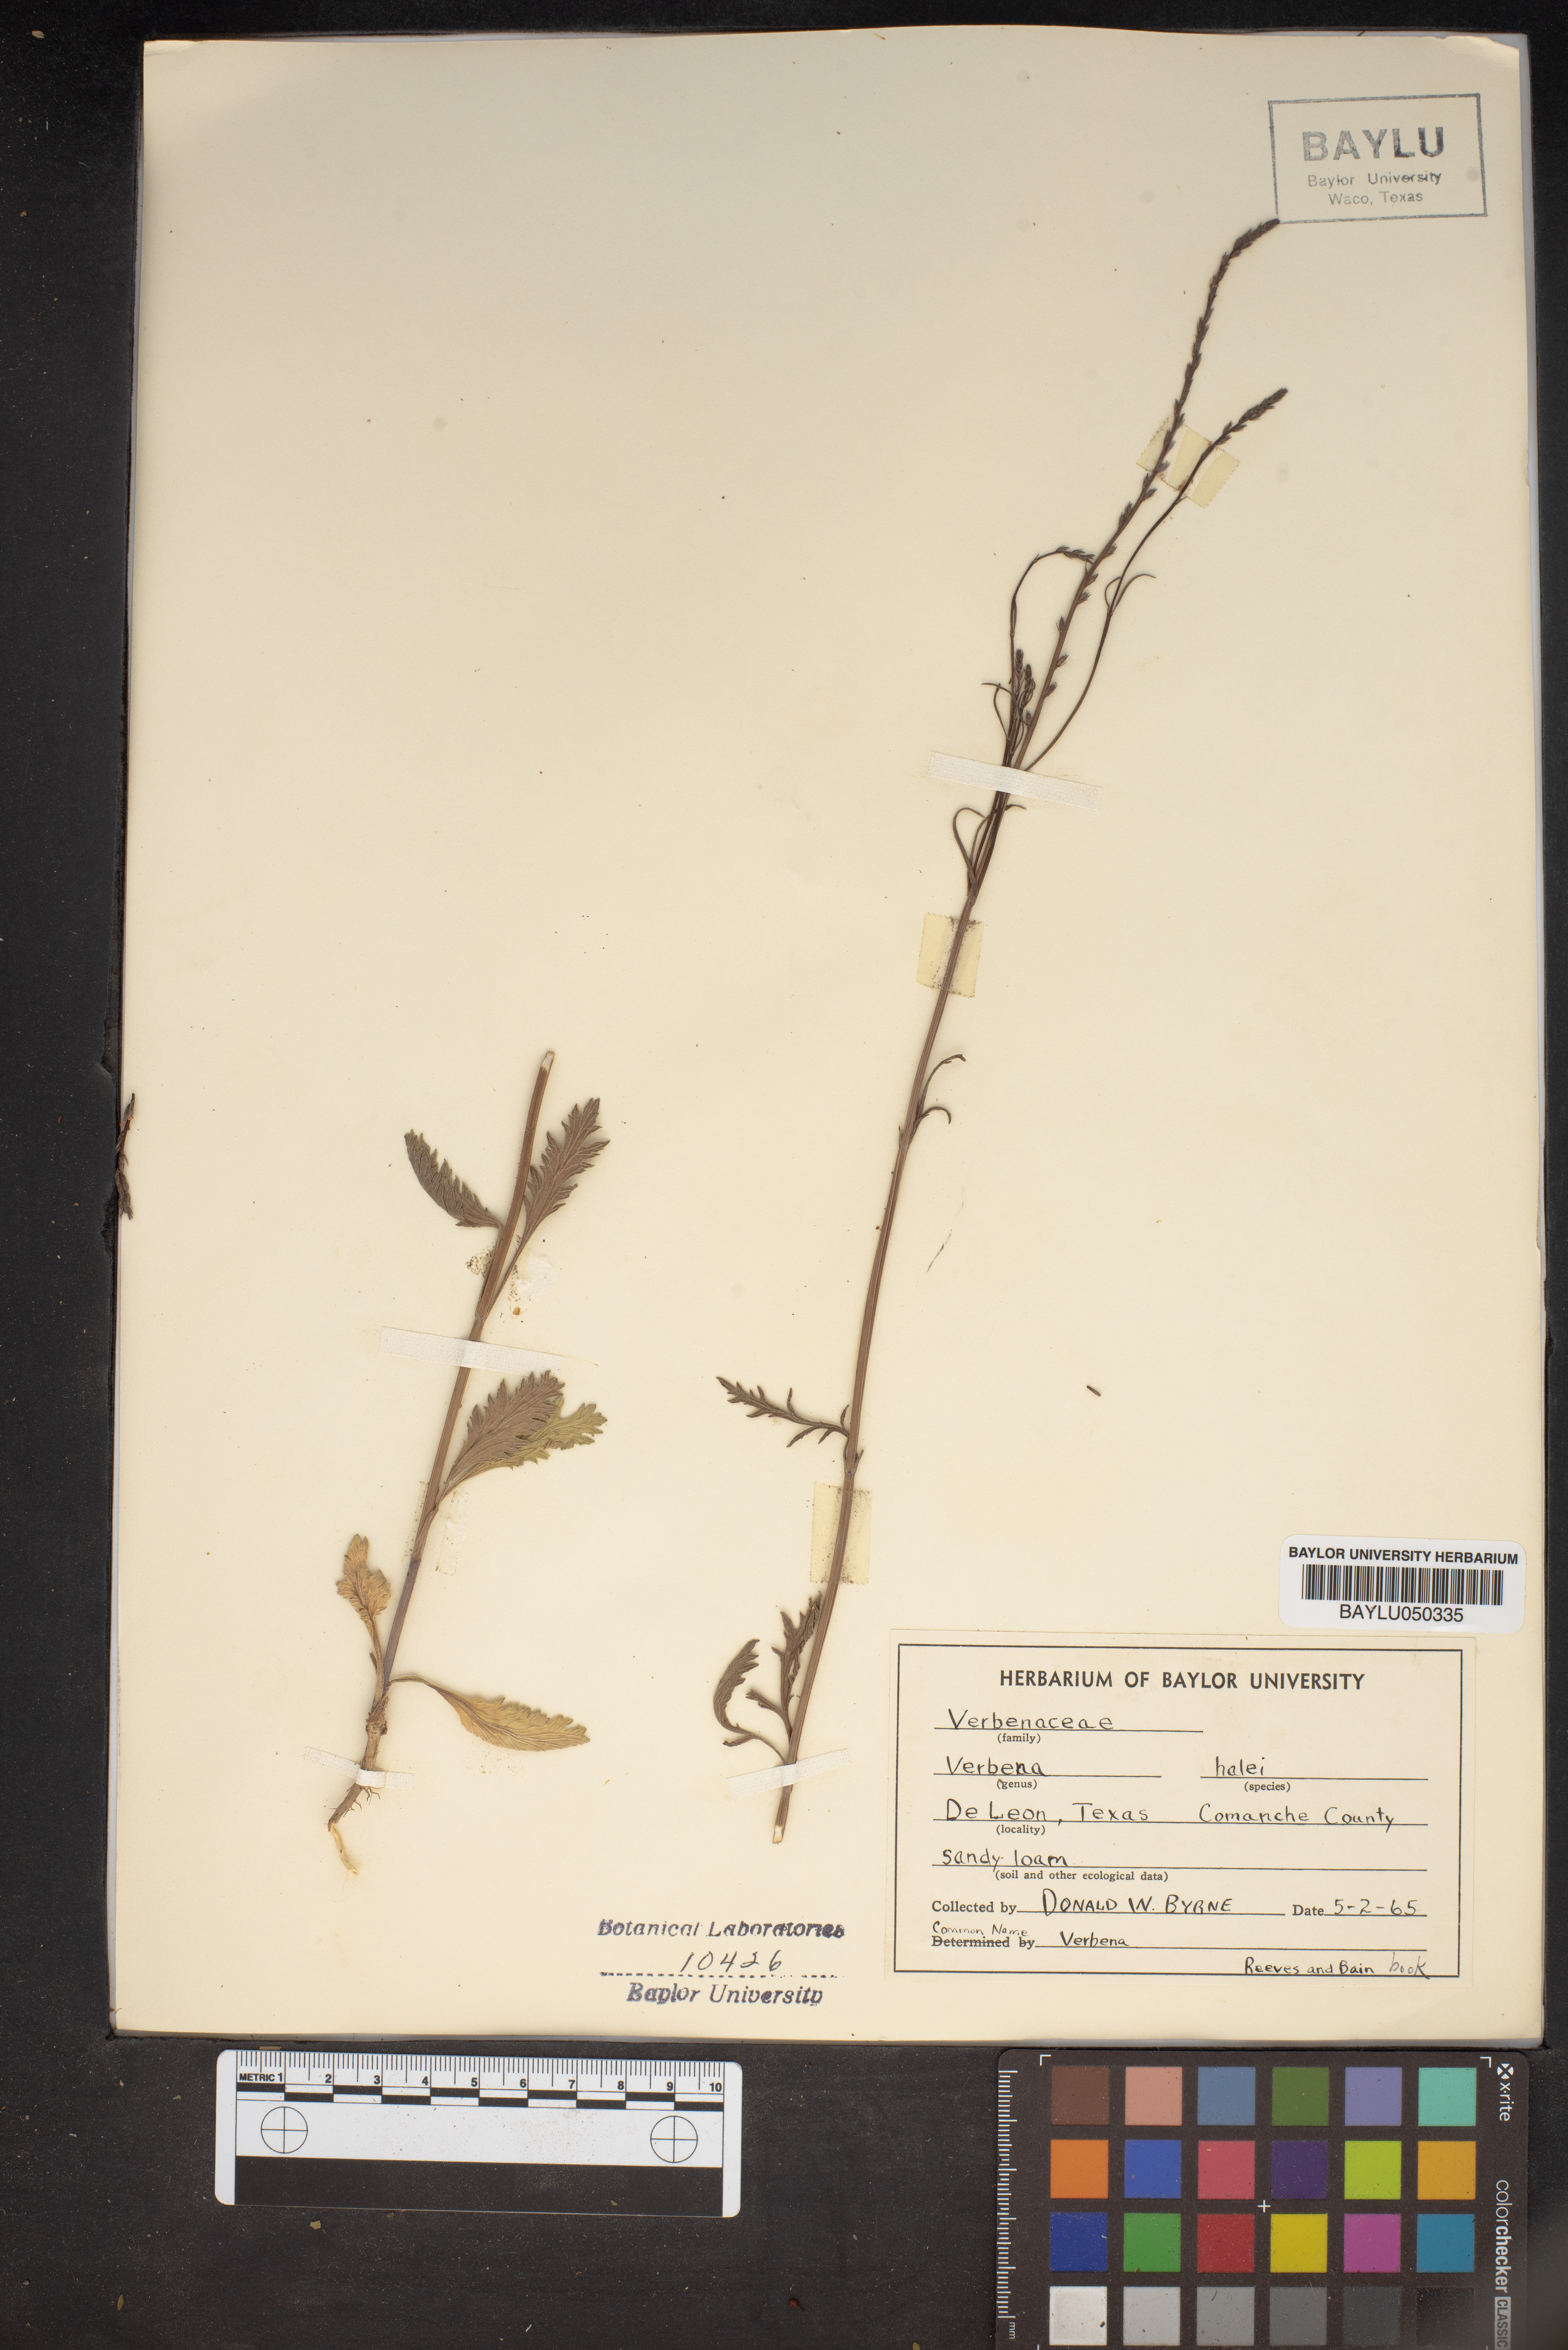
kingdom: Plantae
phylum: Tracheophyta
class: Magnoliopsida
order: Lamiales
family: Verbenaceae
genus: Verbena
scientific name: Verbena halei
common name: Texas vervain
